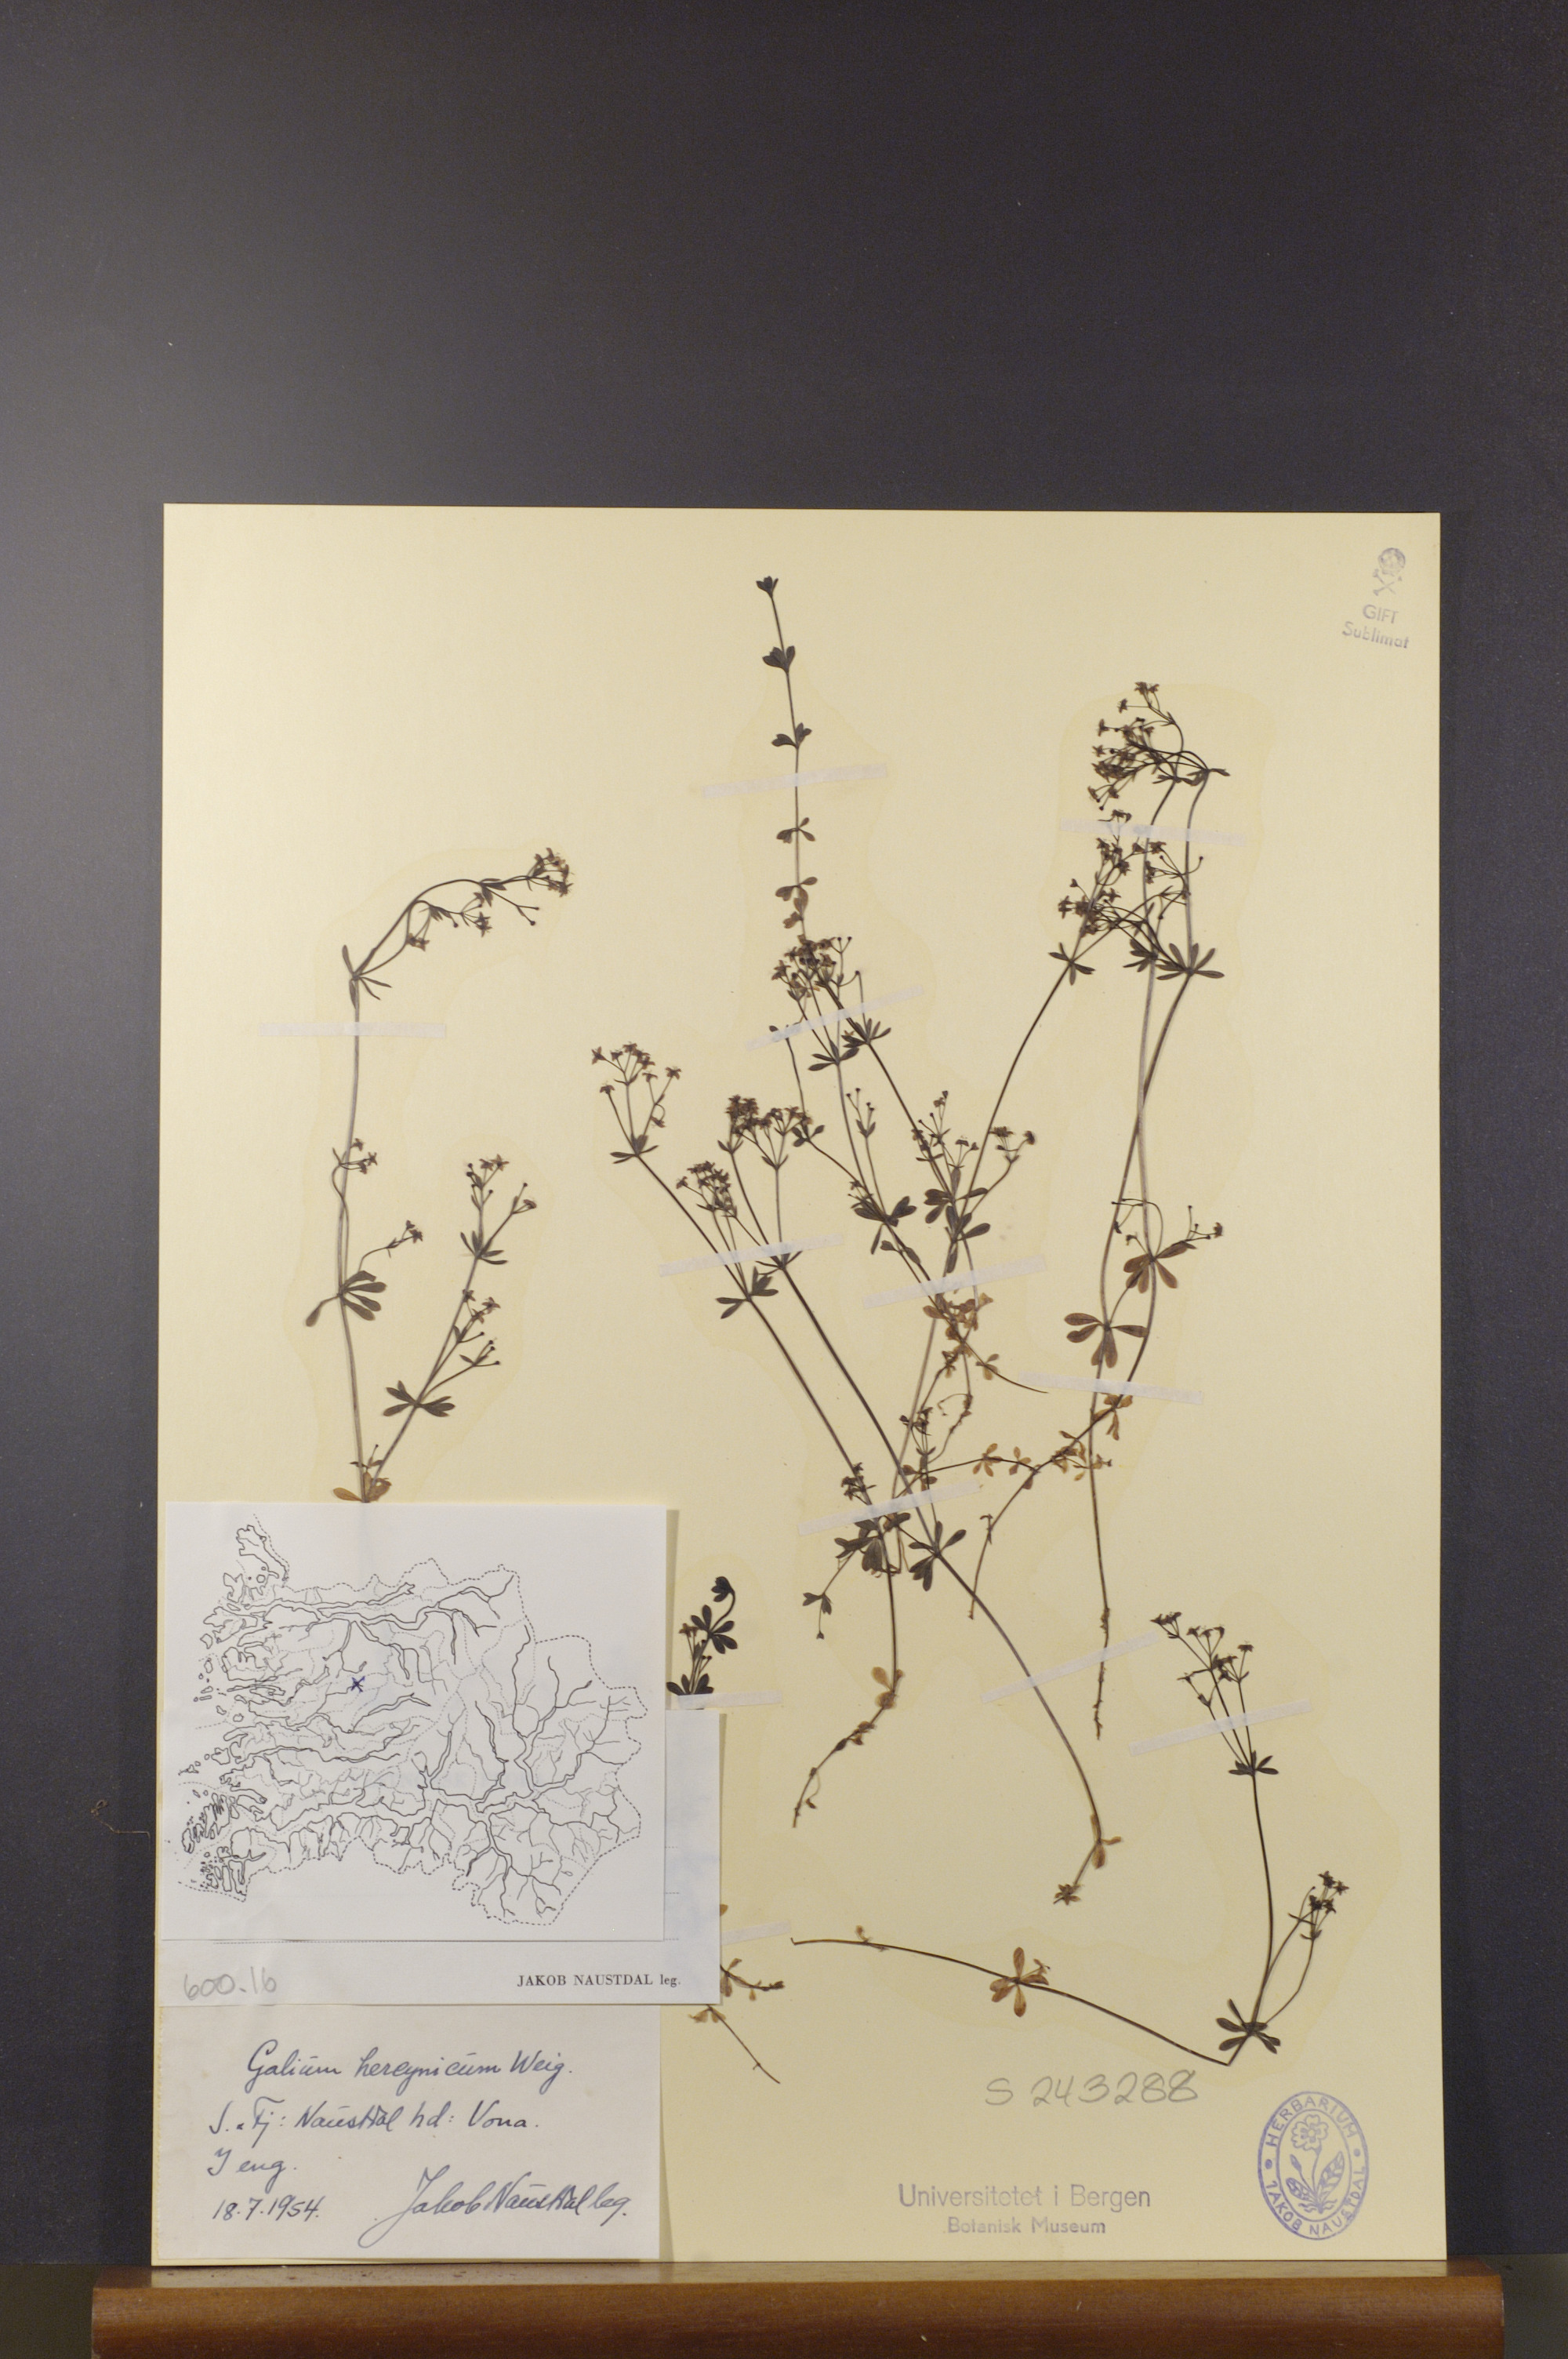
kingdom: Plantae
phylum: Tracheophyta
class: Magnoliopsida
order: Gentianales
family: Rubiaceae
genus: Galium
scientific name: Galium saxatile
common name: Heath bedstraw
